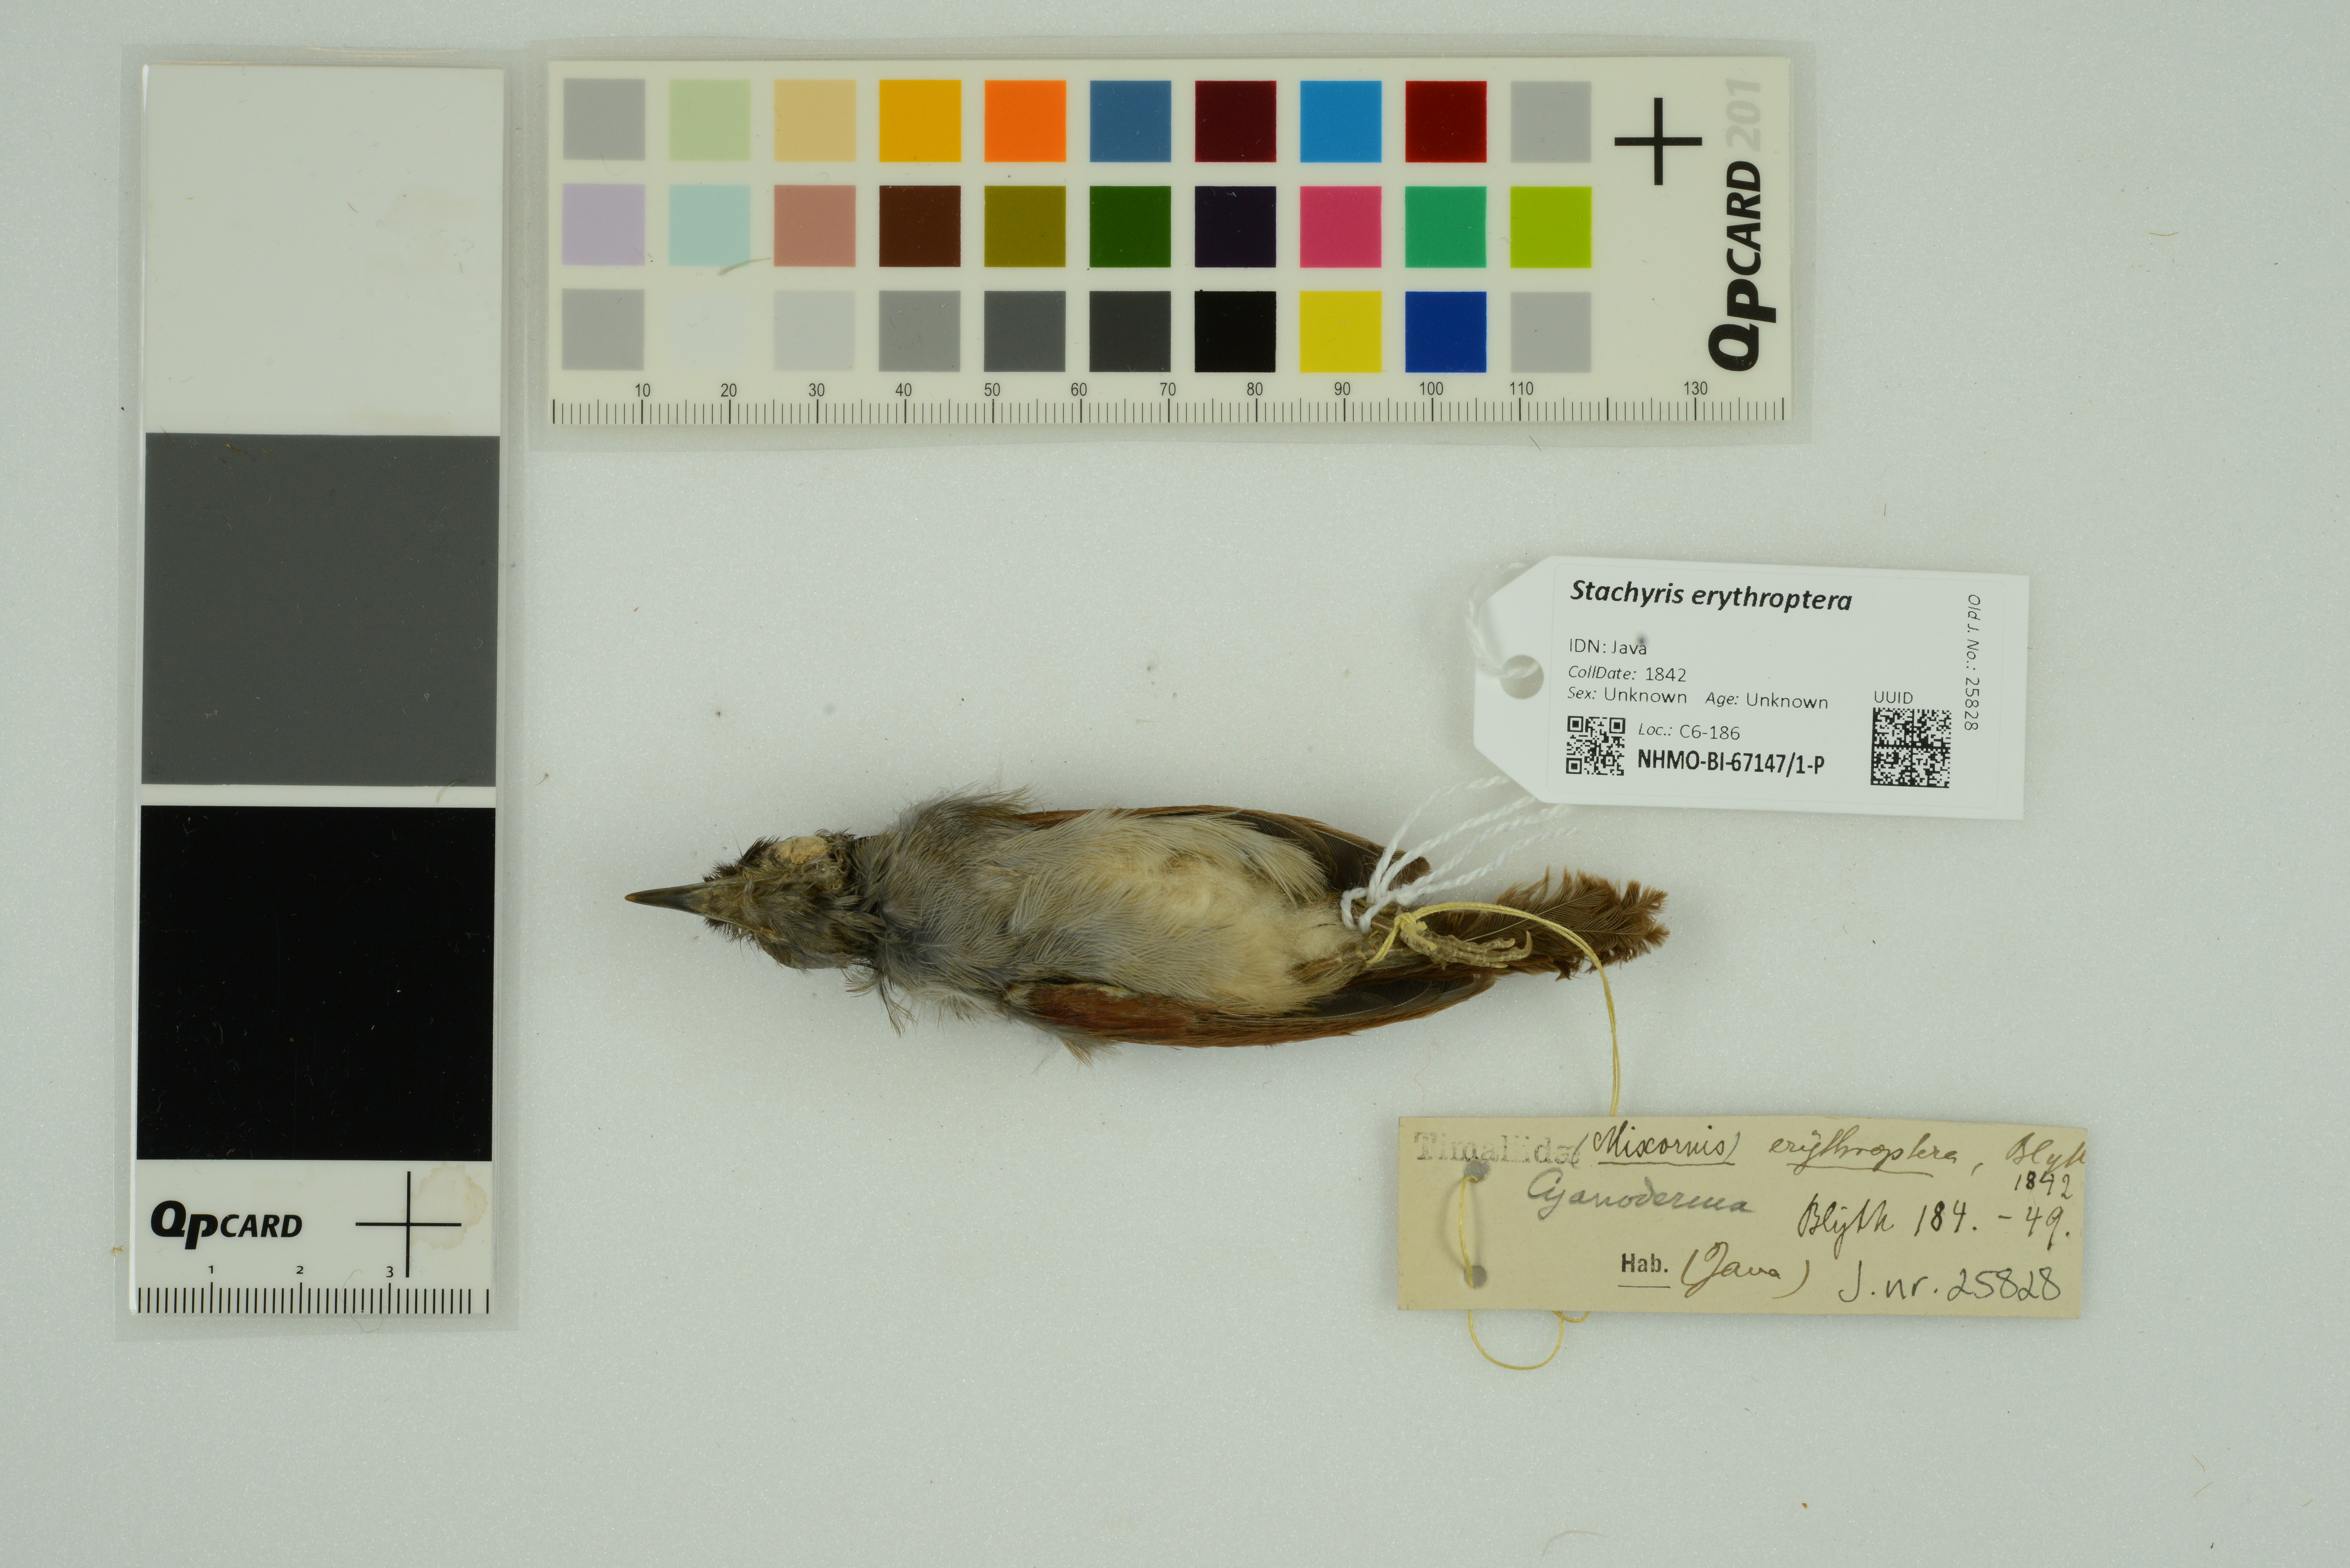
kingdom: Animalia
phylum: Chordata
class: Aves
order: Passeriformes
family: Timaliidae
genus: Stachyris
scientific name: Stachyris erythroptera
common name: Chestnut-winged babbler
